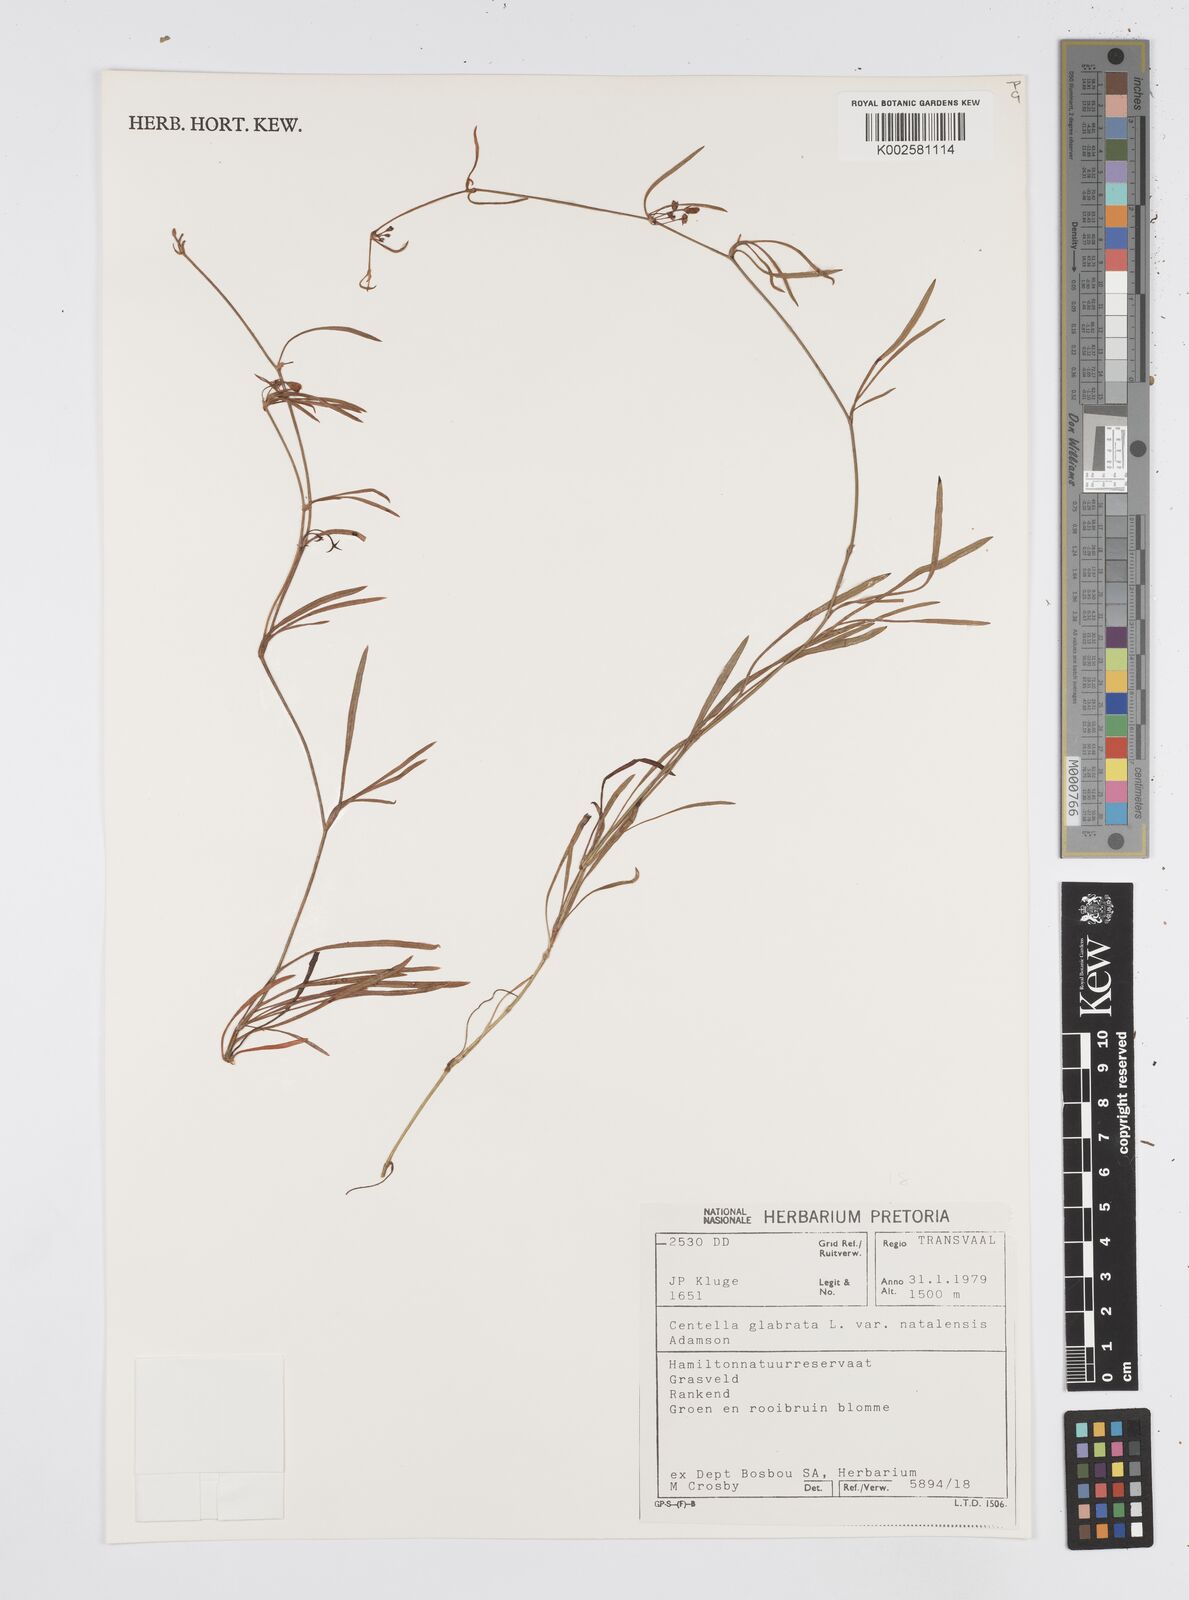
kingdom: Plantae
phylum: Tracheophyta
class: Magnoliopsida
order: Apiales
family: Apiaceae
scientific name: Apiaceae
